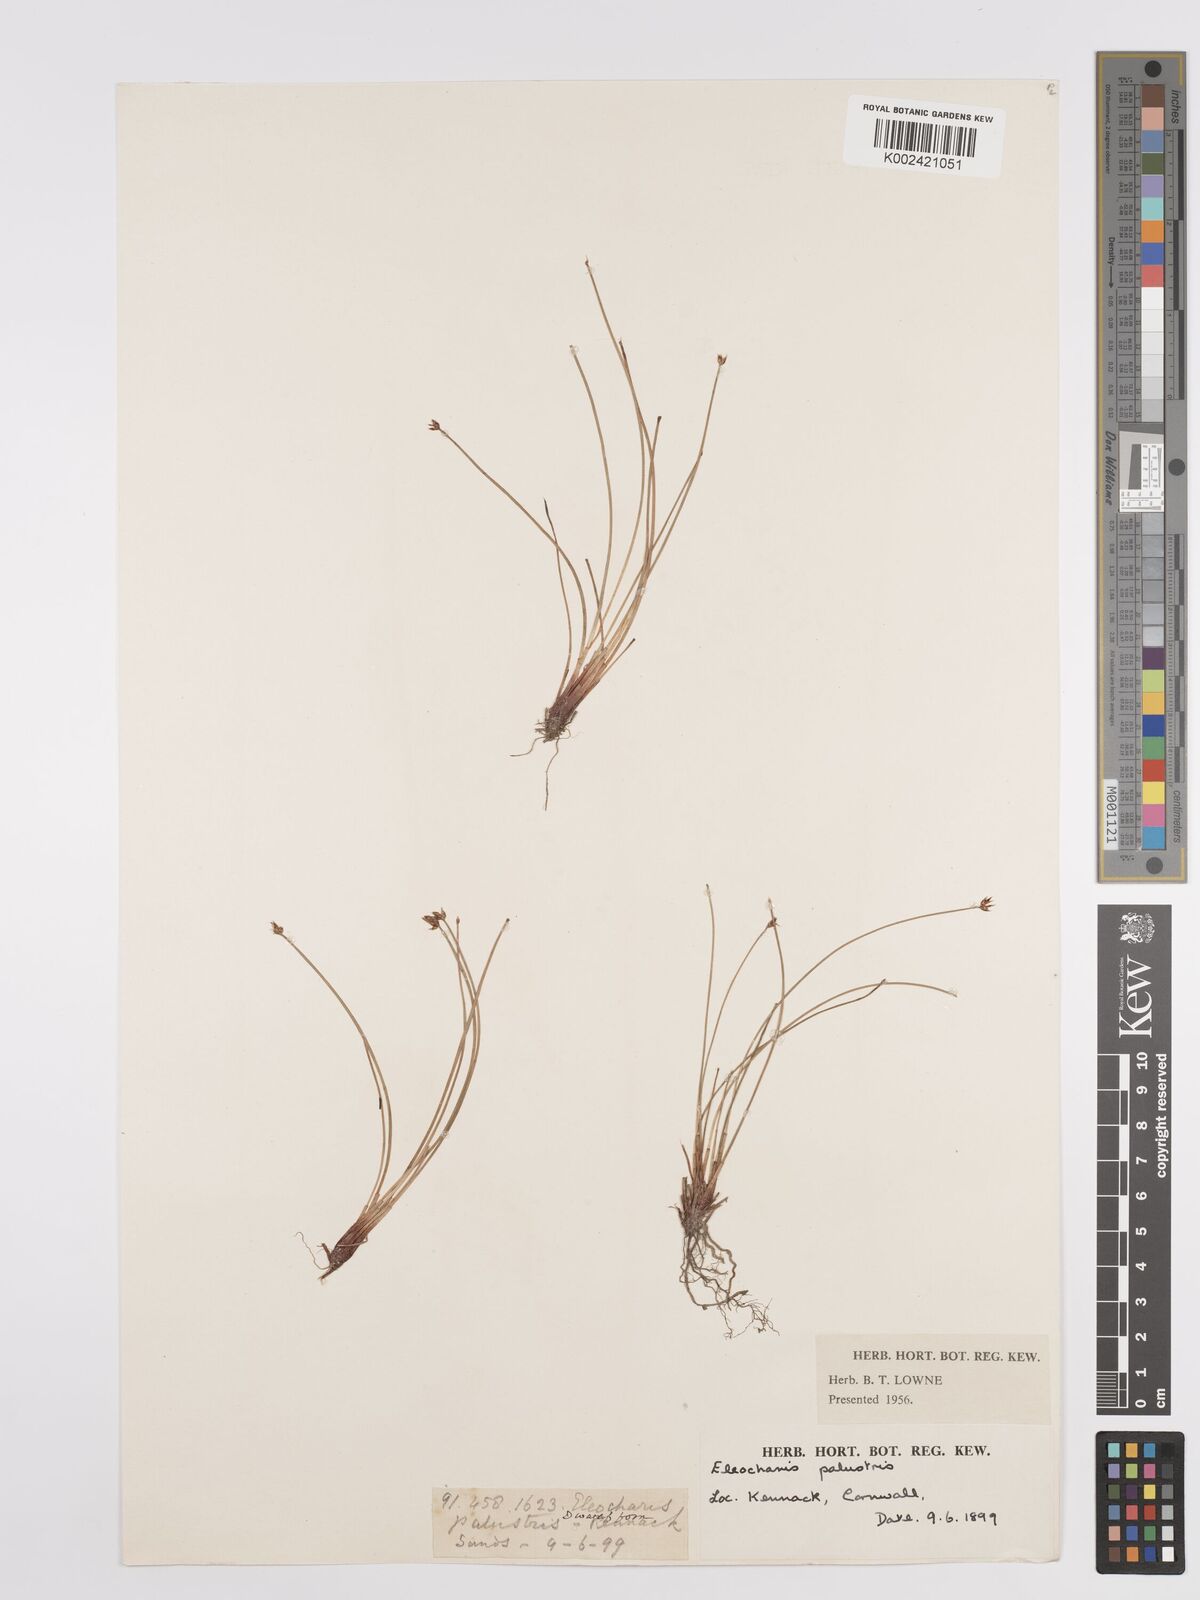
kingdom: Plantae
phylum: Tracheophyta
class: Liliopsida
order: Poales
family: Cyperaceae
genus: Eleocharis
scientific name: Eleocharis palustris
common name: Common spike-rush
